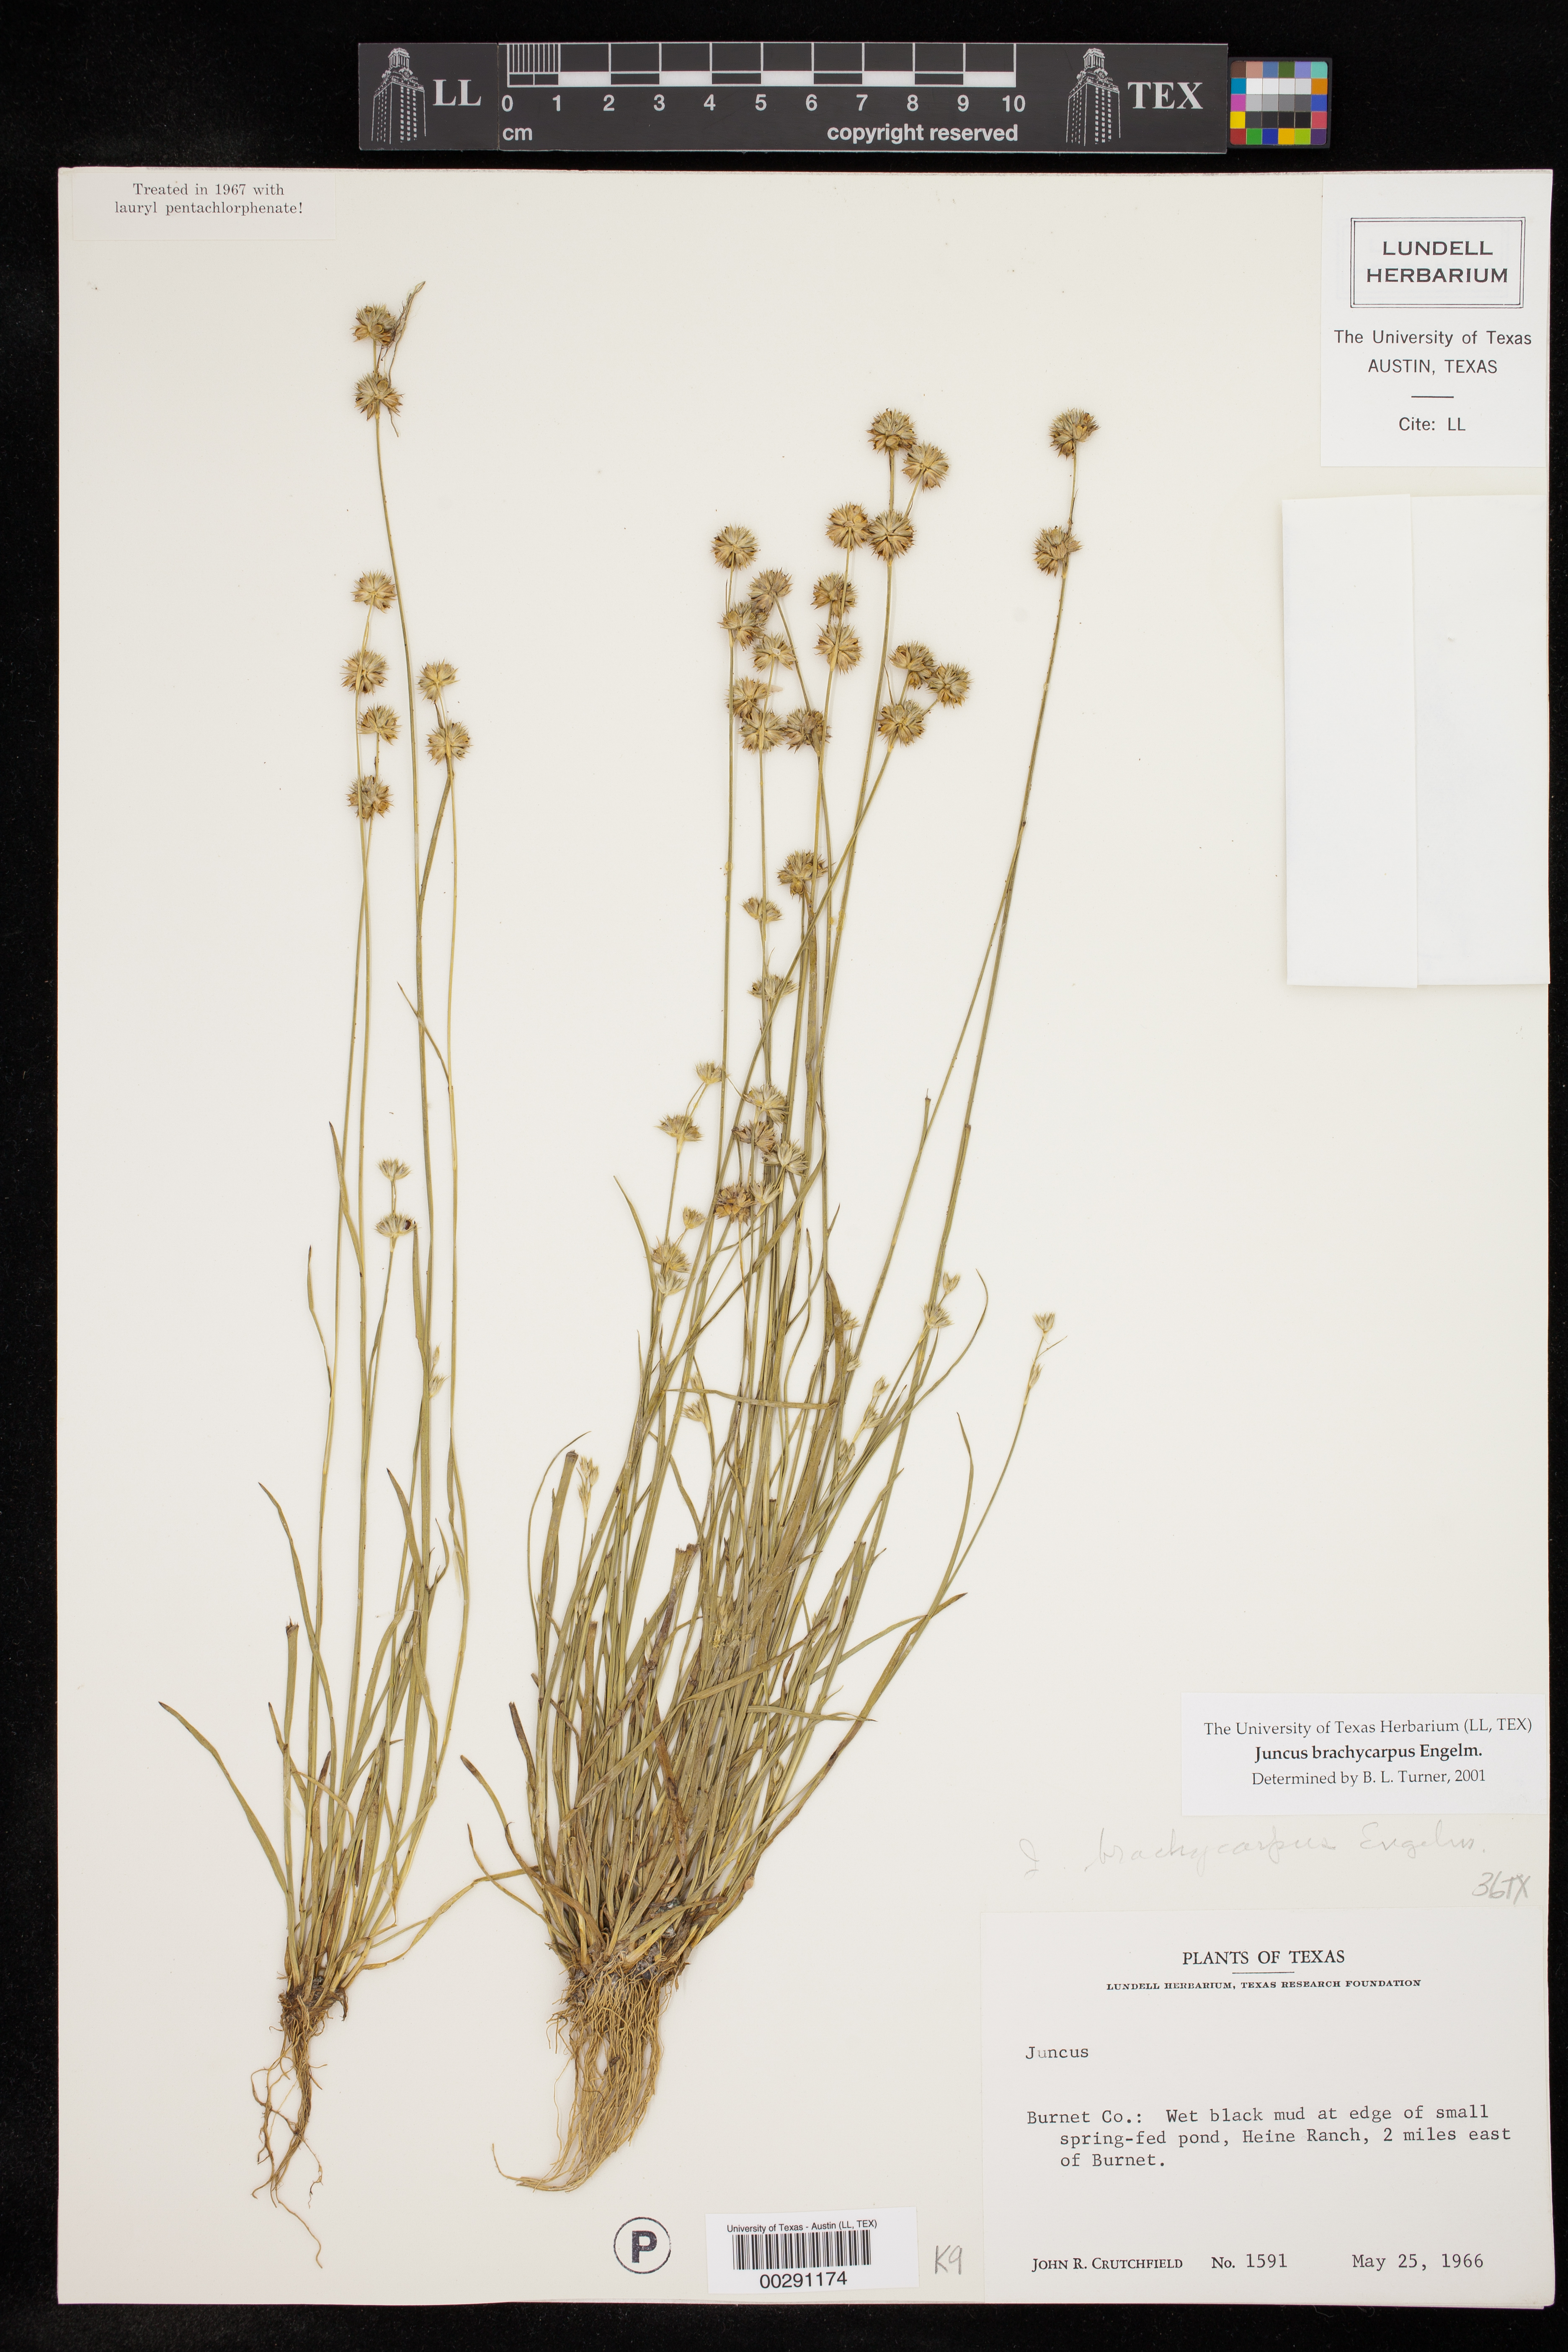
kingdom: Plantae
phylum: Tracheophyta
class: Liliopsida
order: Poales
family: Juncaceae
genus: Juncus
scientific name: Juncus brachycarpus
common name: Shore rush
